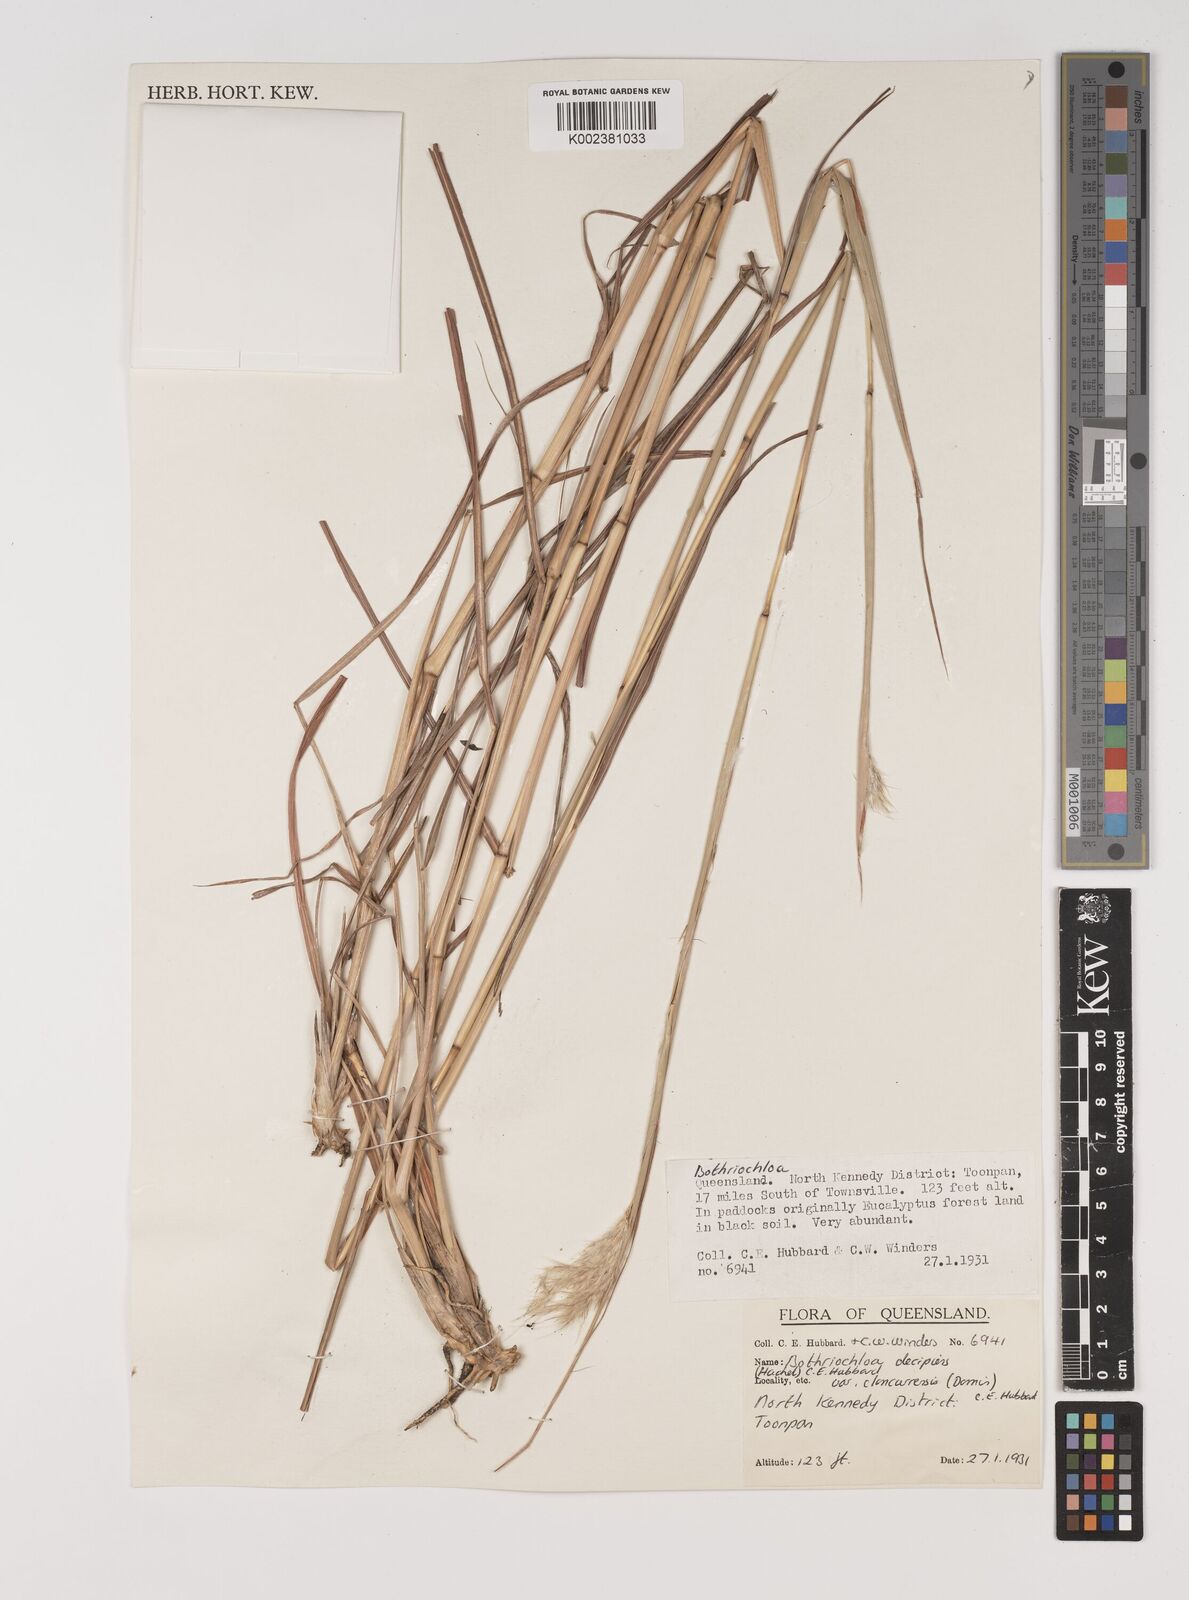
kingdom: Plantae
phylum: Tracheophyta
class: Liliopsida
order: Poales
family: Poaceae
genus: Bothriochloa
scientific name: Bothriochloa decipiens
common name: Pitted-bluegrass
